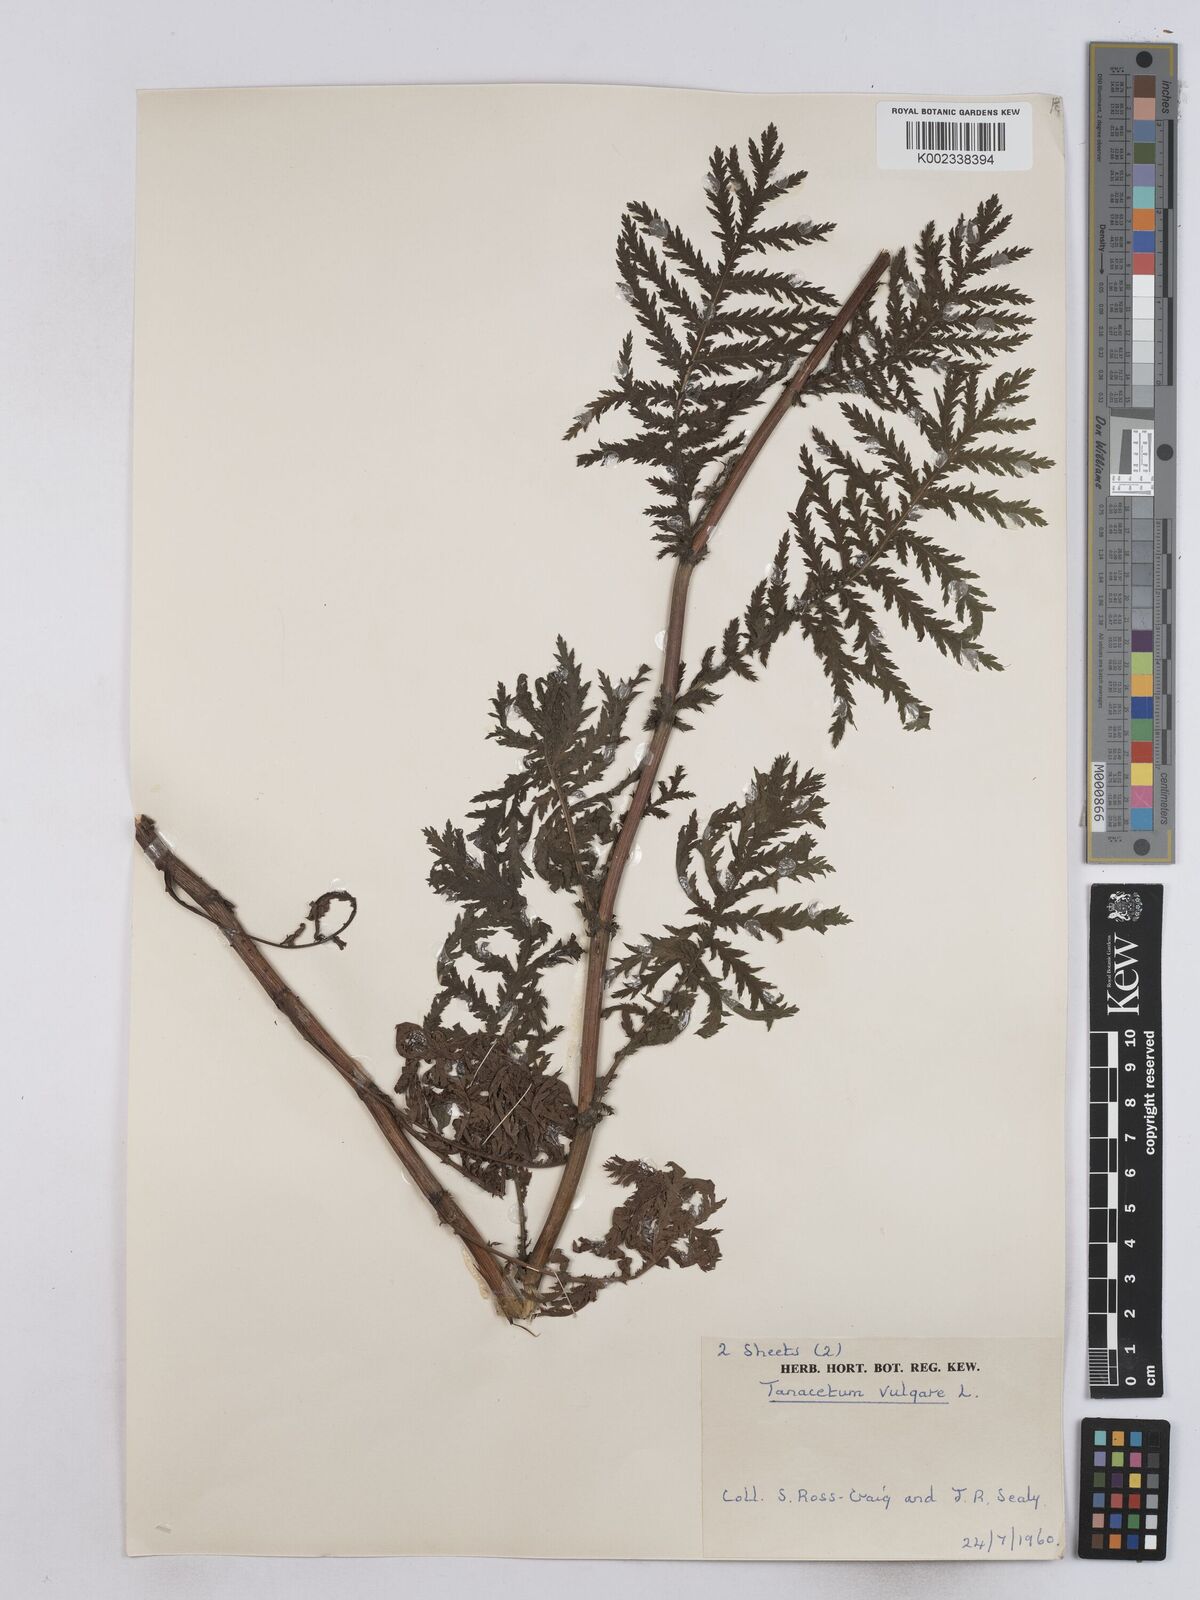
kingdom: Plantae
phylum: Tracheophyta
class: Magnoliopsida
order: Asterales
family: Asteraceae
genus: Tanacetum
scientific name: Tanacetum vulgare
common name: Common tansy
